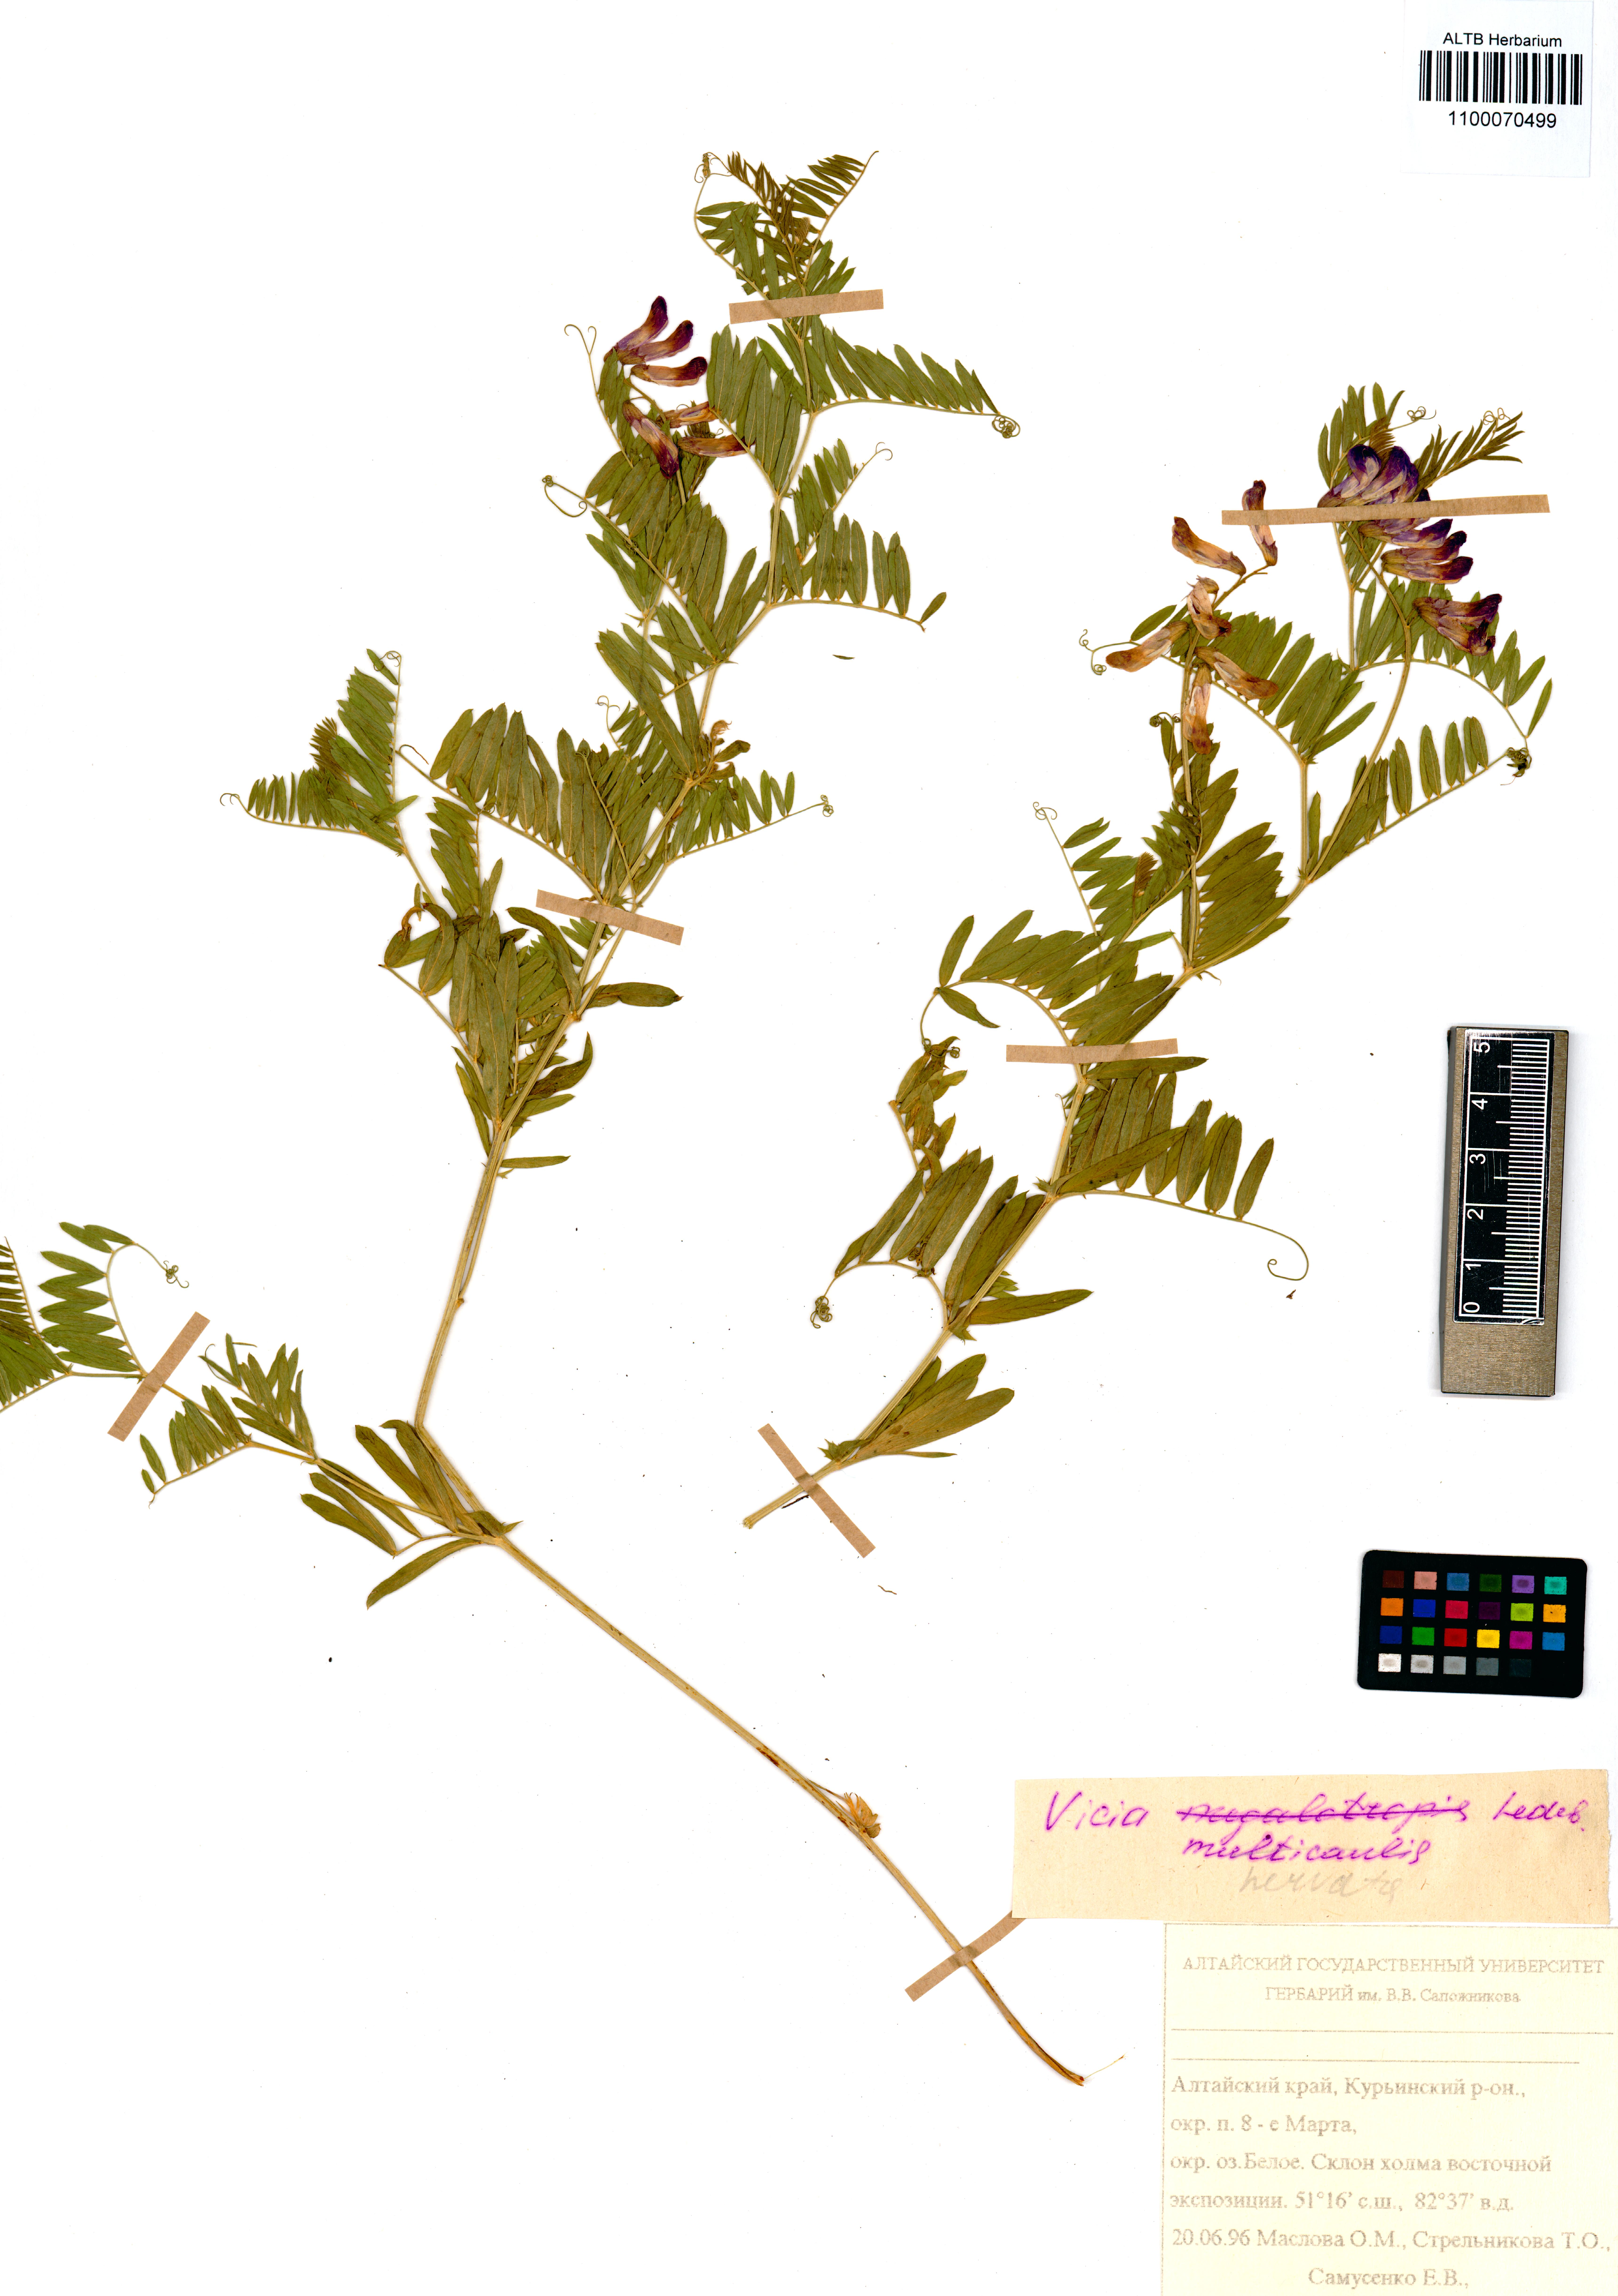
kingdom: Plantae
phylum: Tracheophyta
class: Magnoliopsida
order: Fabales
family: Fabaceae
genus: Vicia
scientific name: Vicia multicaulis
